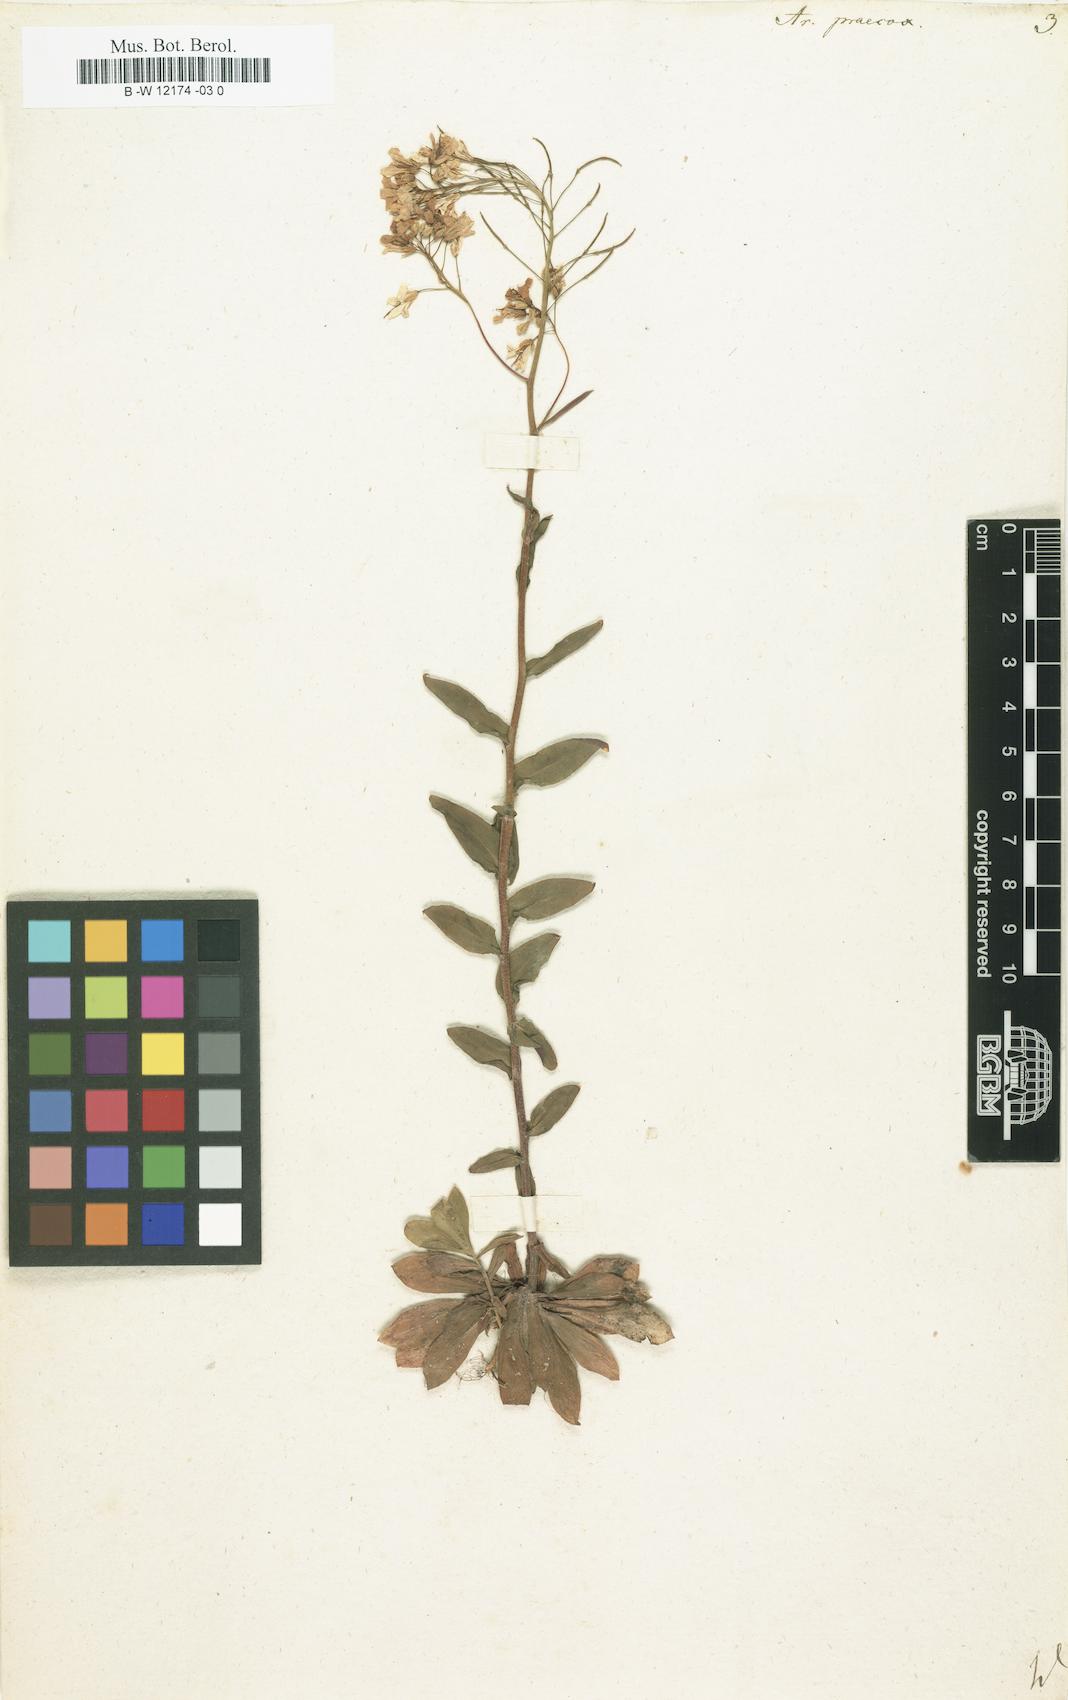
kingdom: Plantae
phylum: Tracheophyta
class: Magnoliopsida
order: Brassicales
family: Brassicaceae
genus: Arabis
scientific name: Arabis procurrens
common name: Running rockcress
